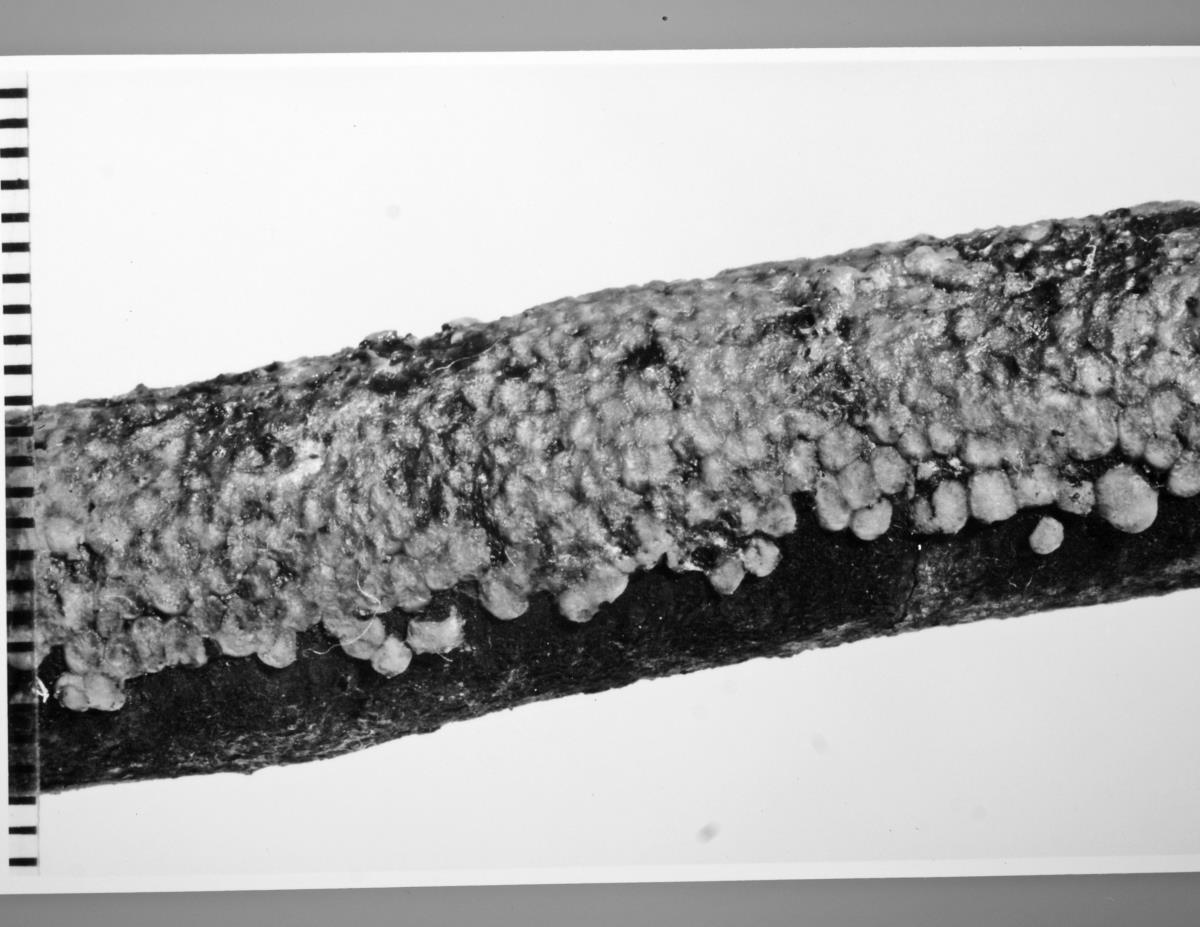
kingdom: Fungi
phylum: Basidiomycota
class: Agaricomycetes
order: Auriculariales
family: Auriculariaceae
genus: Pseudostypella
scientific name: Pseudostypella nothofagi
